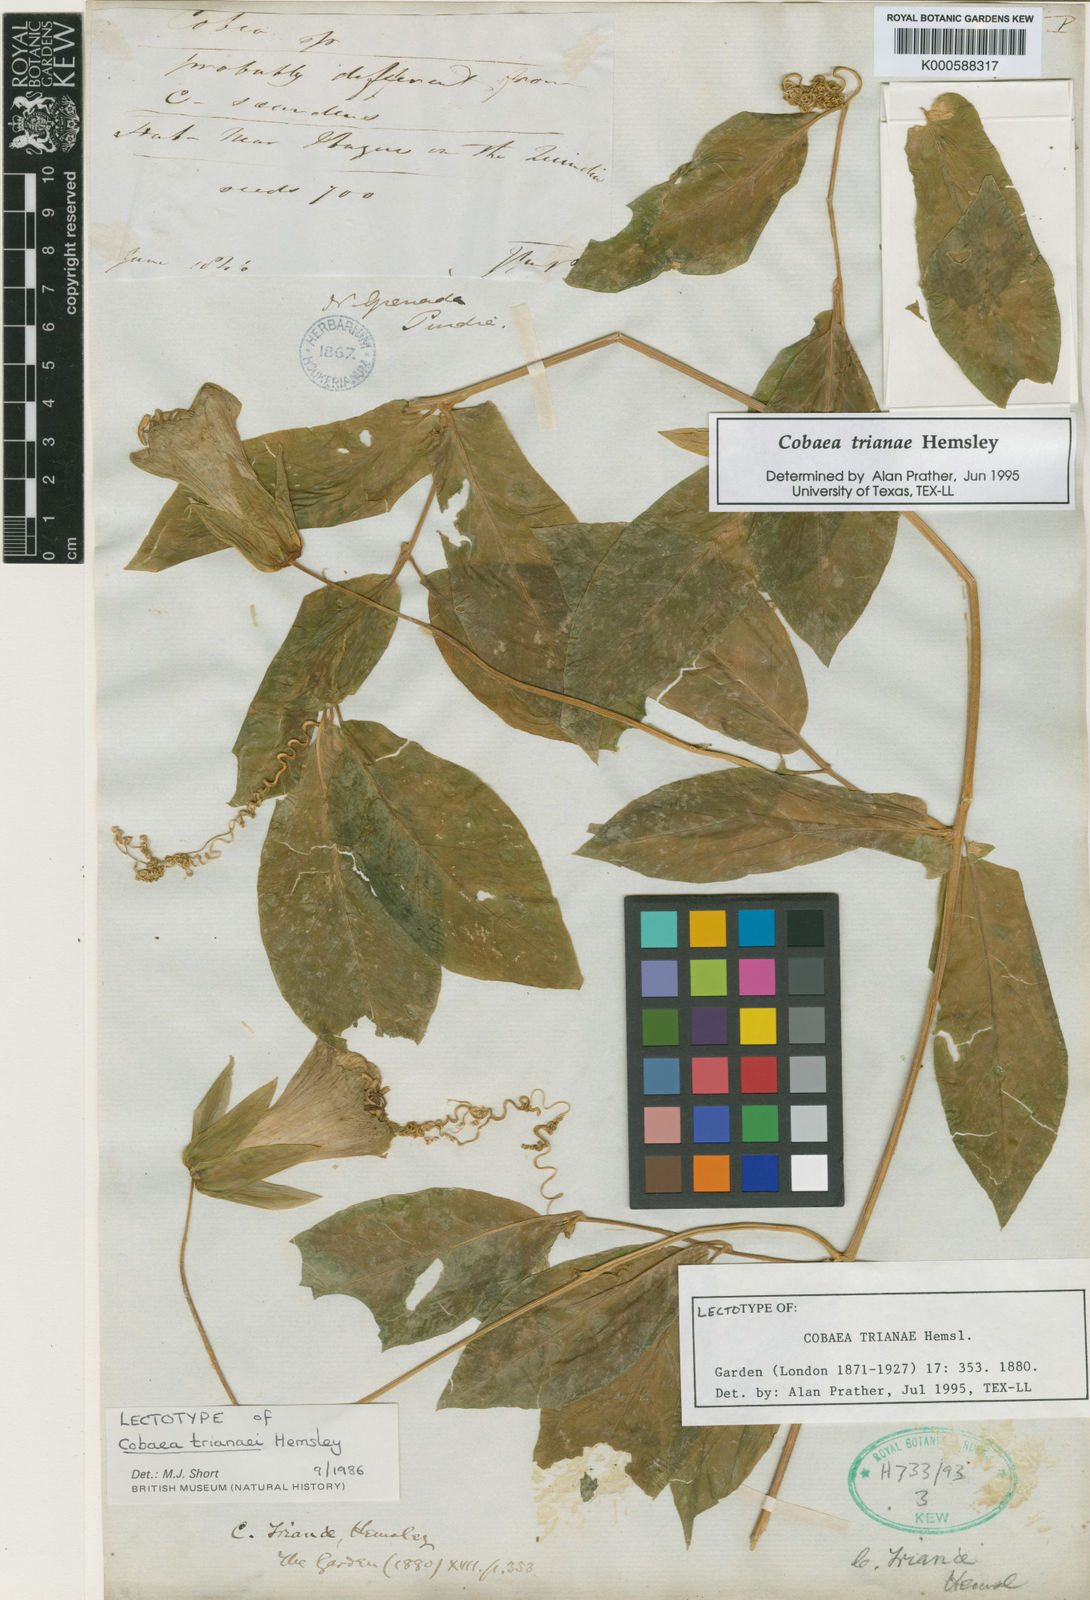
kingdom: Plantae
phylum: Tracheophyta
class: Magnoliopsida
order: Ericales
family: Polemoniaceae
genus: Cobaea
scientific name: Cobaea trianae
